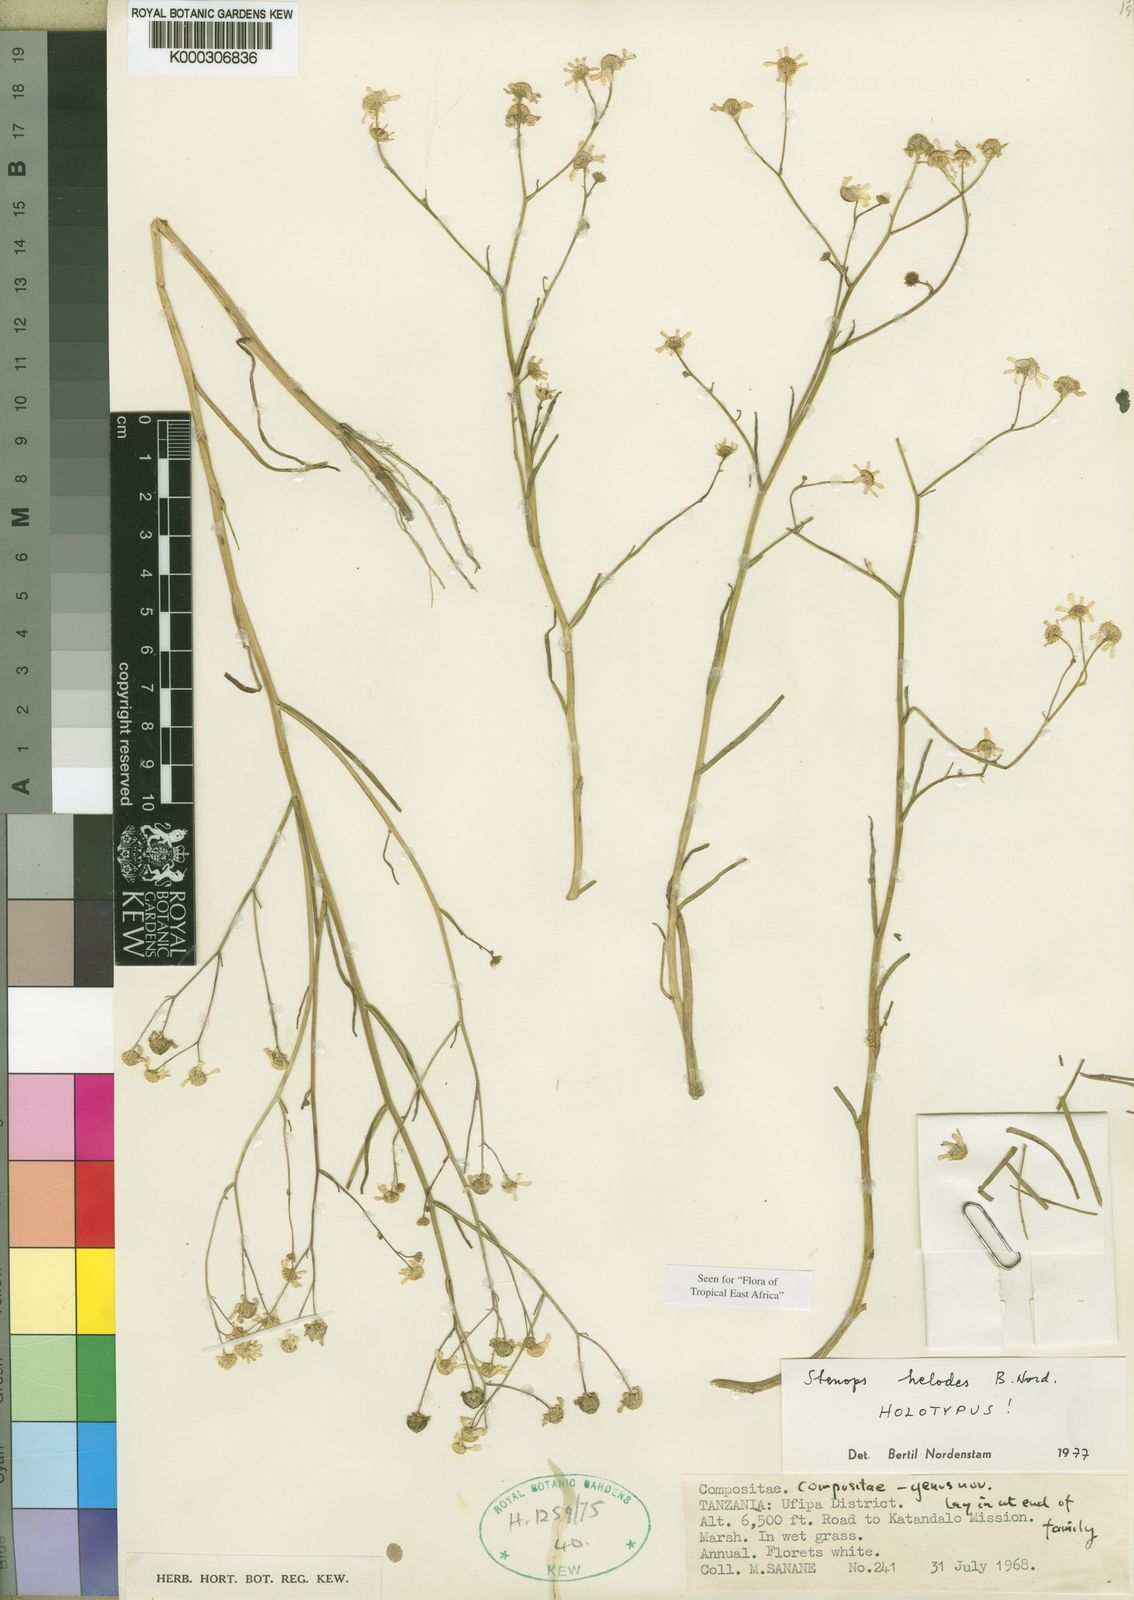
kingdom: Plantae
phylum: Tracheophyta
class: Magnoliopsida
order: Asterales
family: Asteraceae
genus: Stenops
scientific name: Stenops helodes
